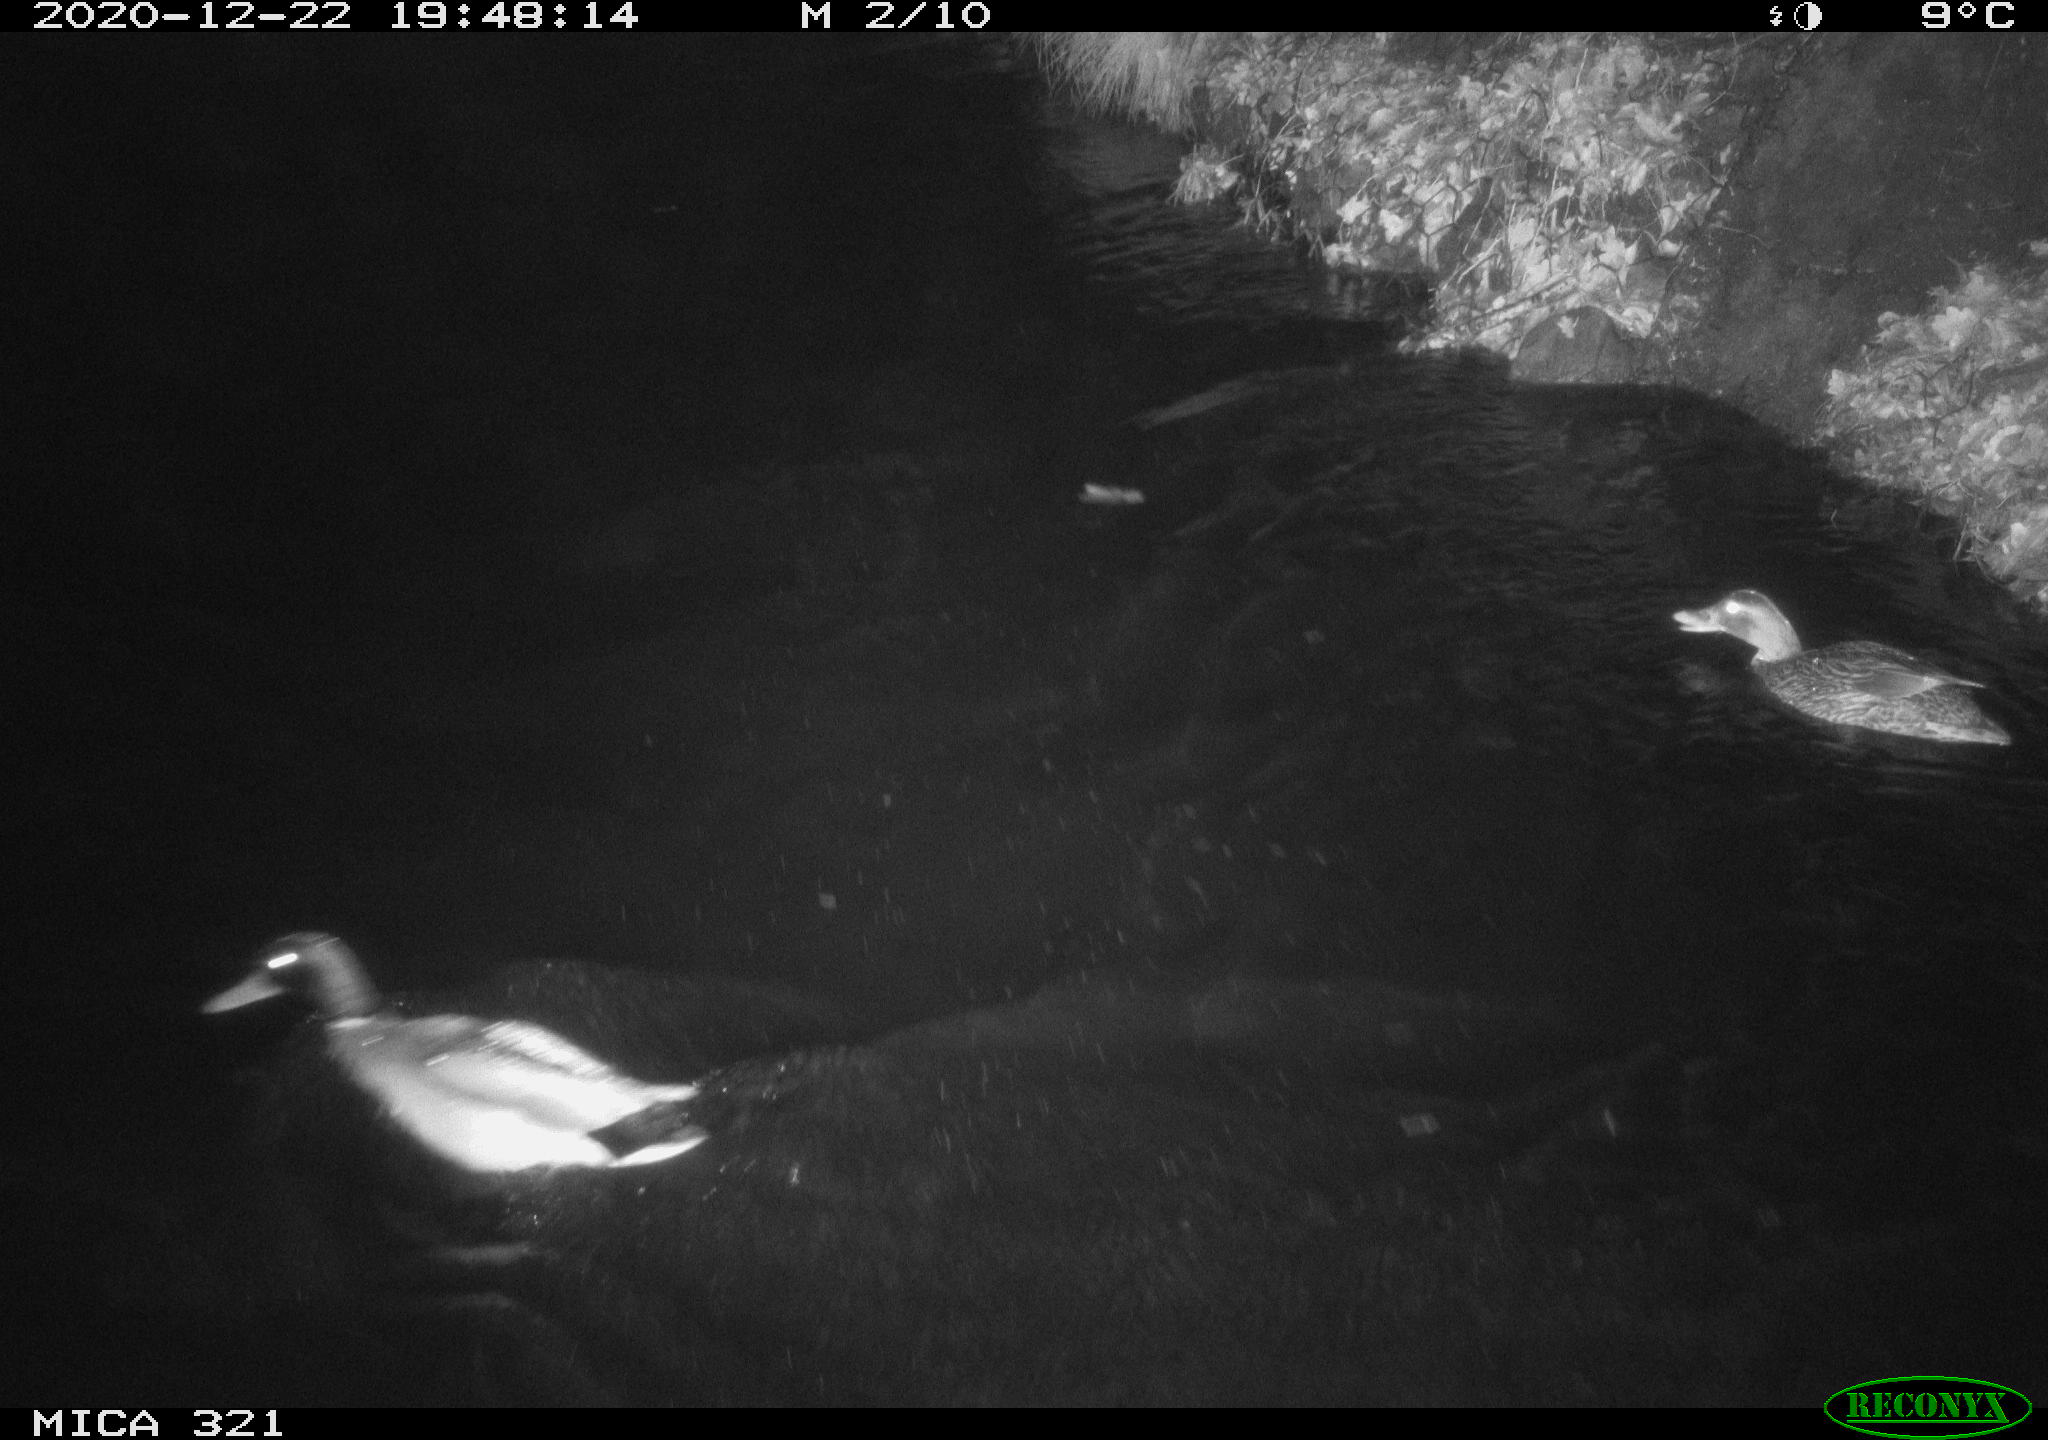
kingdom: Animalia
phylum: Chordata
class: Aves
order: Gruiformes
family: Rallidae
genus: Fulica
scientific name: Fulica atra
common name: Eurasian coot
